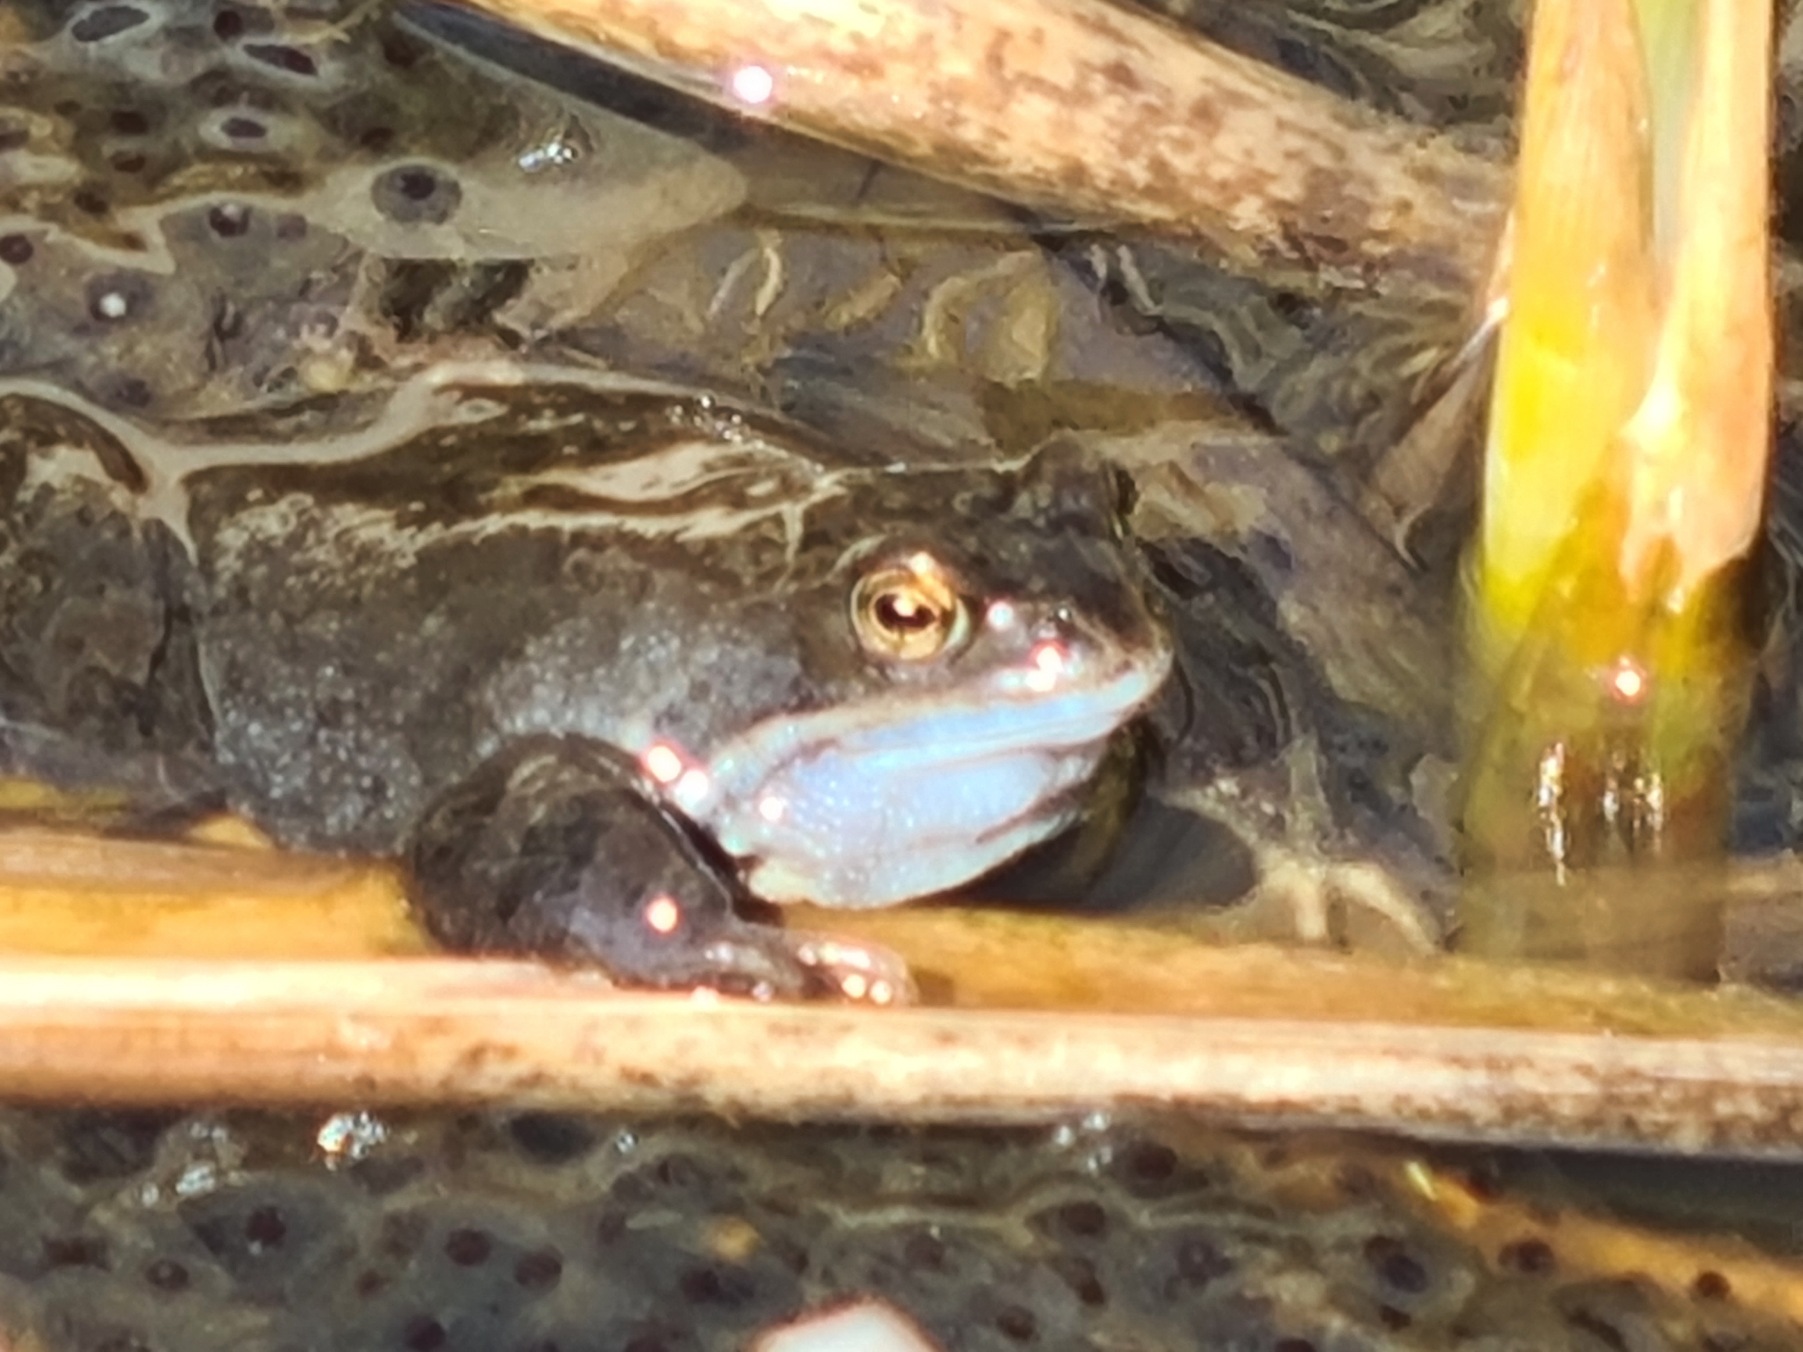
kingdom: Animalia
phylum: Chordata
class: Amphibia
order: Anura
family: Ranidae
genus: Rana
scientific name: Rana temporaria
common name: Butsnudet frø
